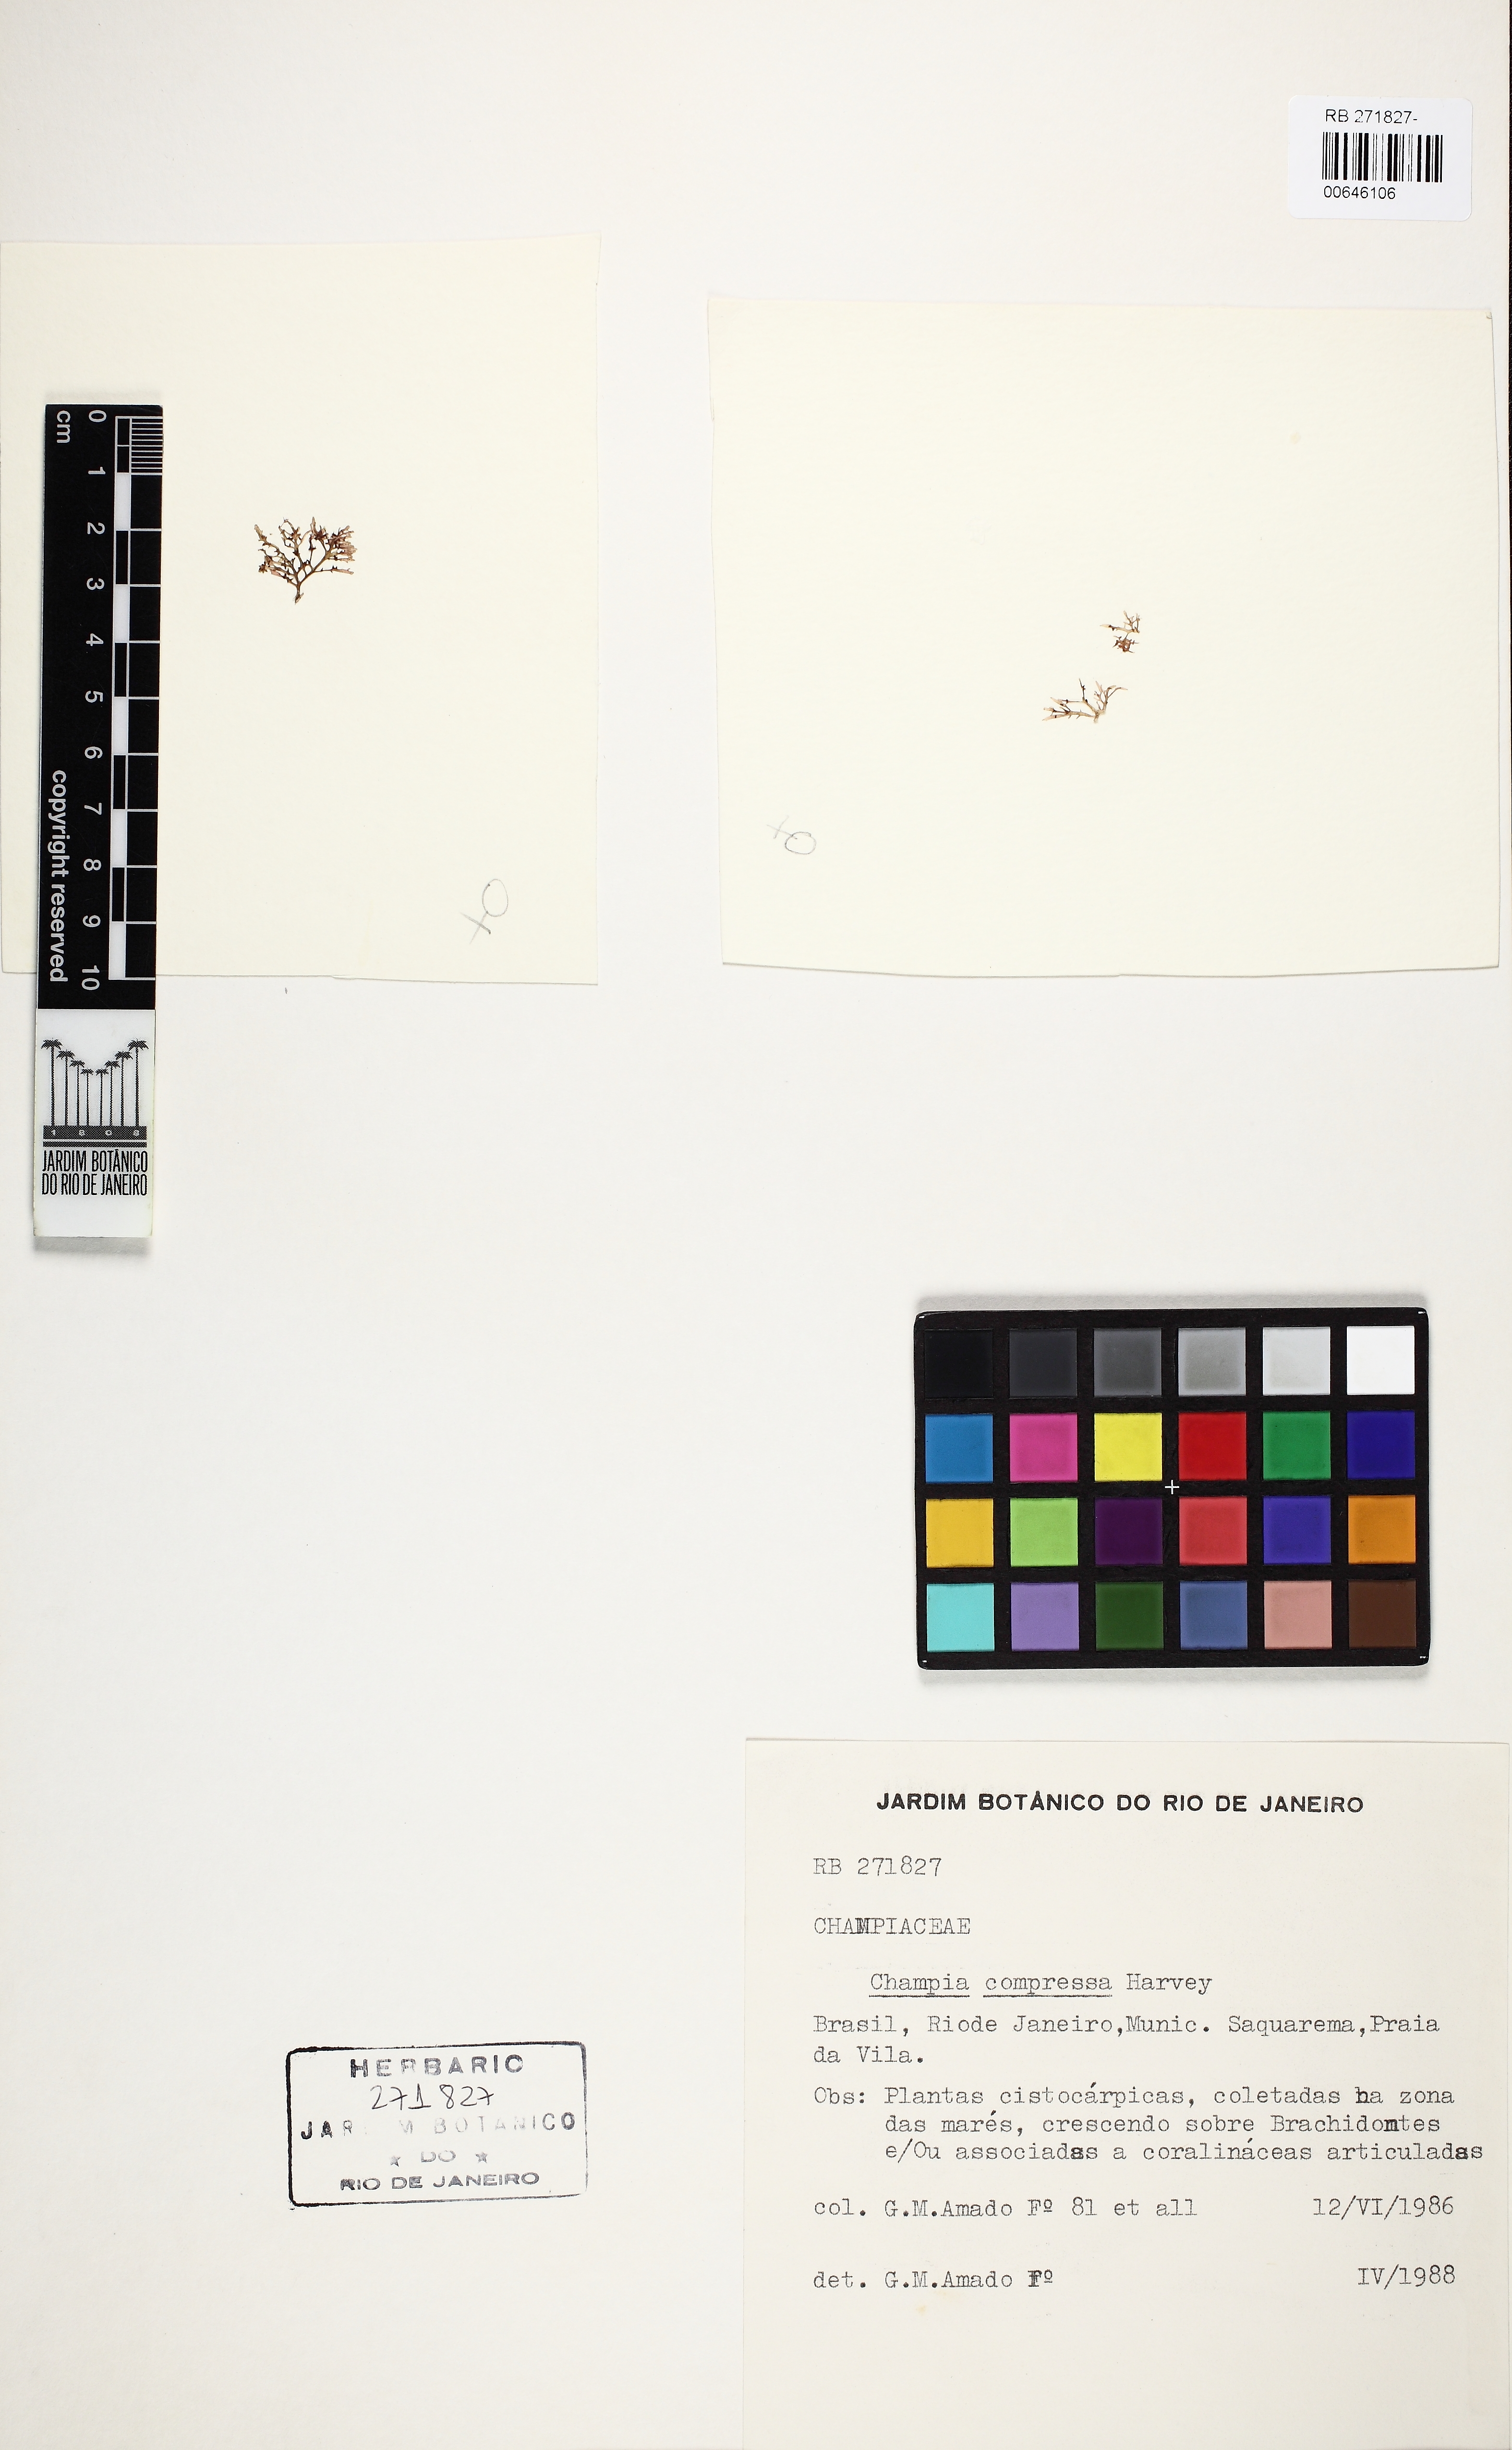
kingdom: Plantae
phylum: Rhodophyta
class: Florideophyceae
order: Rhodymeniales
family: Champiaceae
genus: Champia
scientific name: Champia compressa
